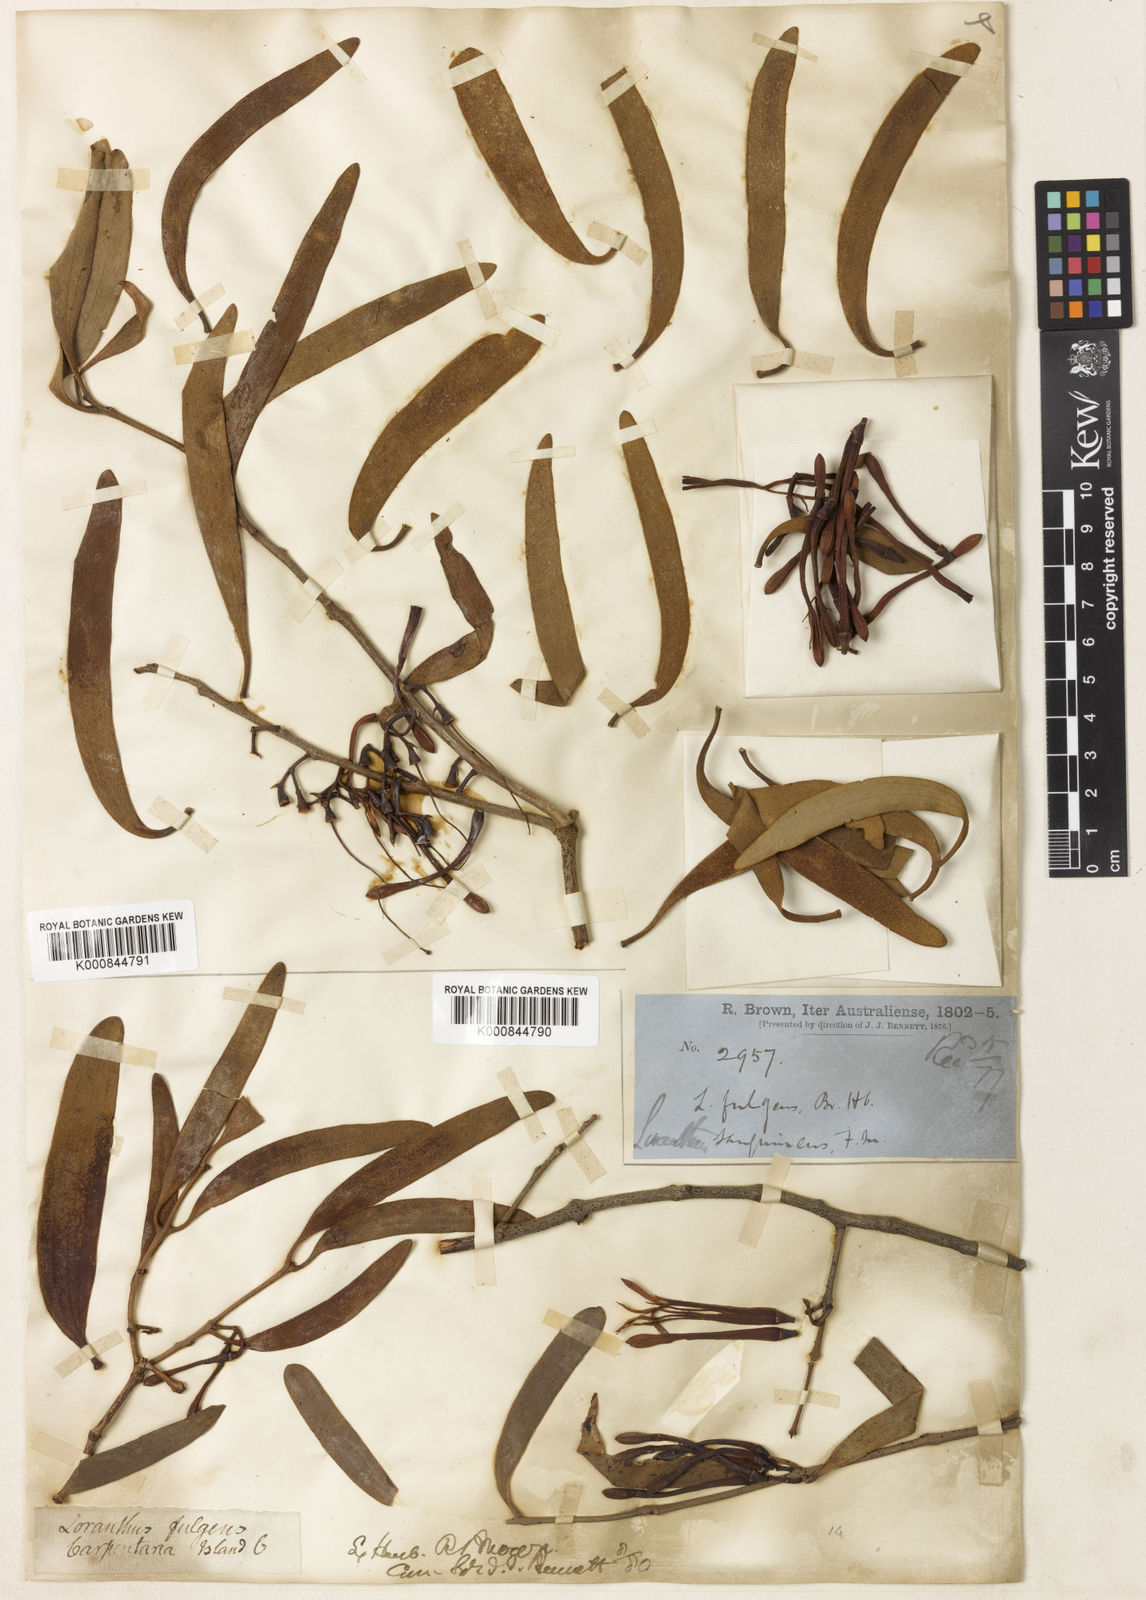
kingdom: Plantae
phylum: Tracheophyta
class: Magnoliopsida
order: Santalales
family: Loranthaceae
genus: Amyema
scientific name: Amyema
